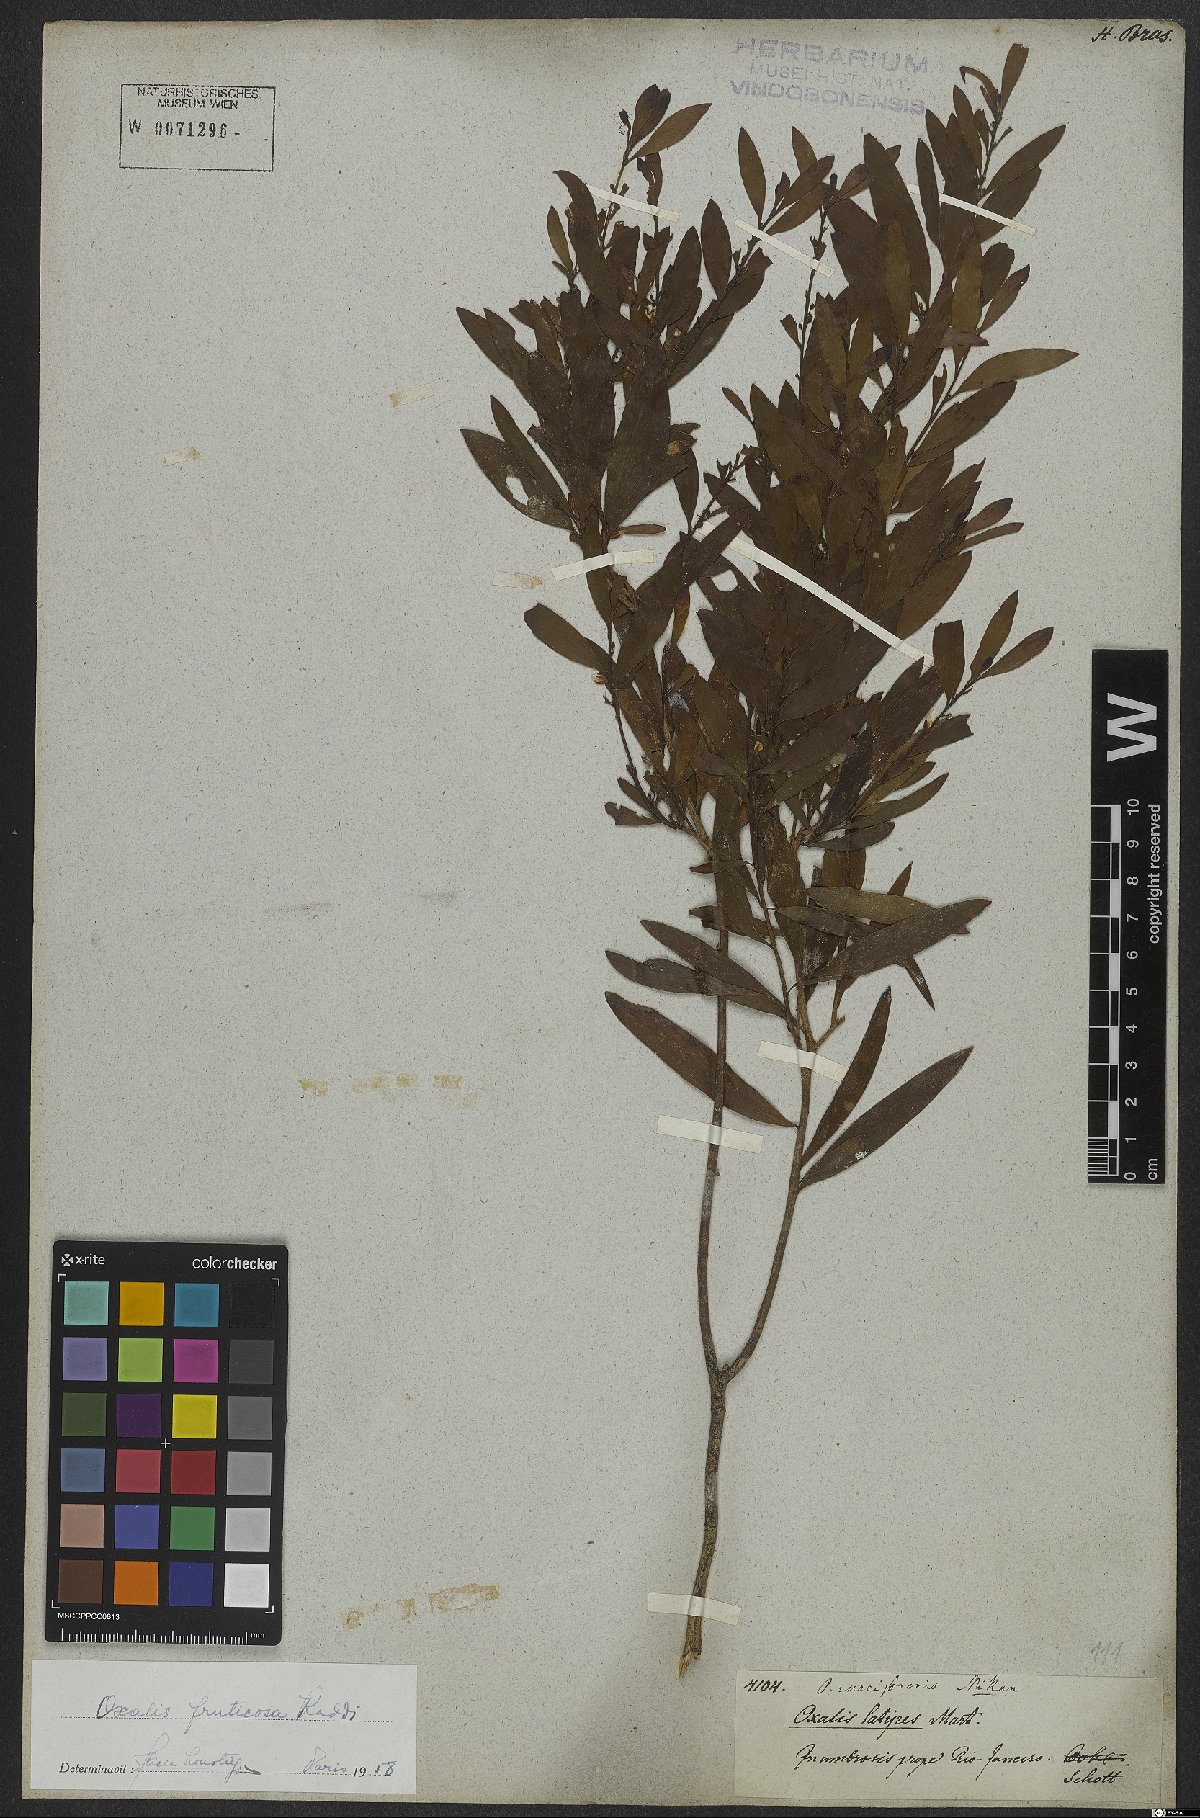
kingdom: Plantae
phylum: Tracheophyta
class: Magnoliopsida
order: Oxalidales
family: Oxalidaceae
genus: Oxalis
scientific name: Oxalis fruticosa
